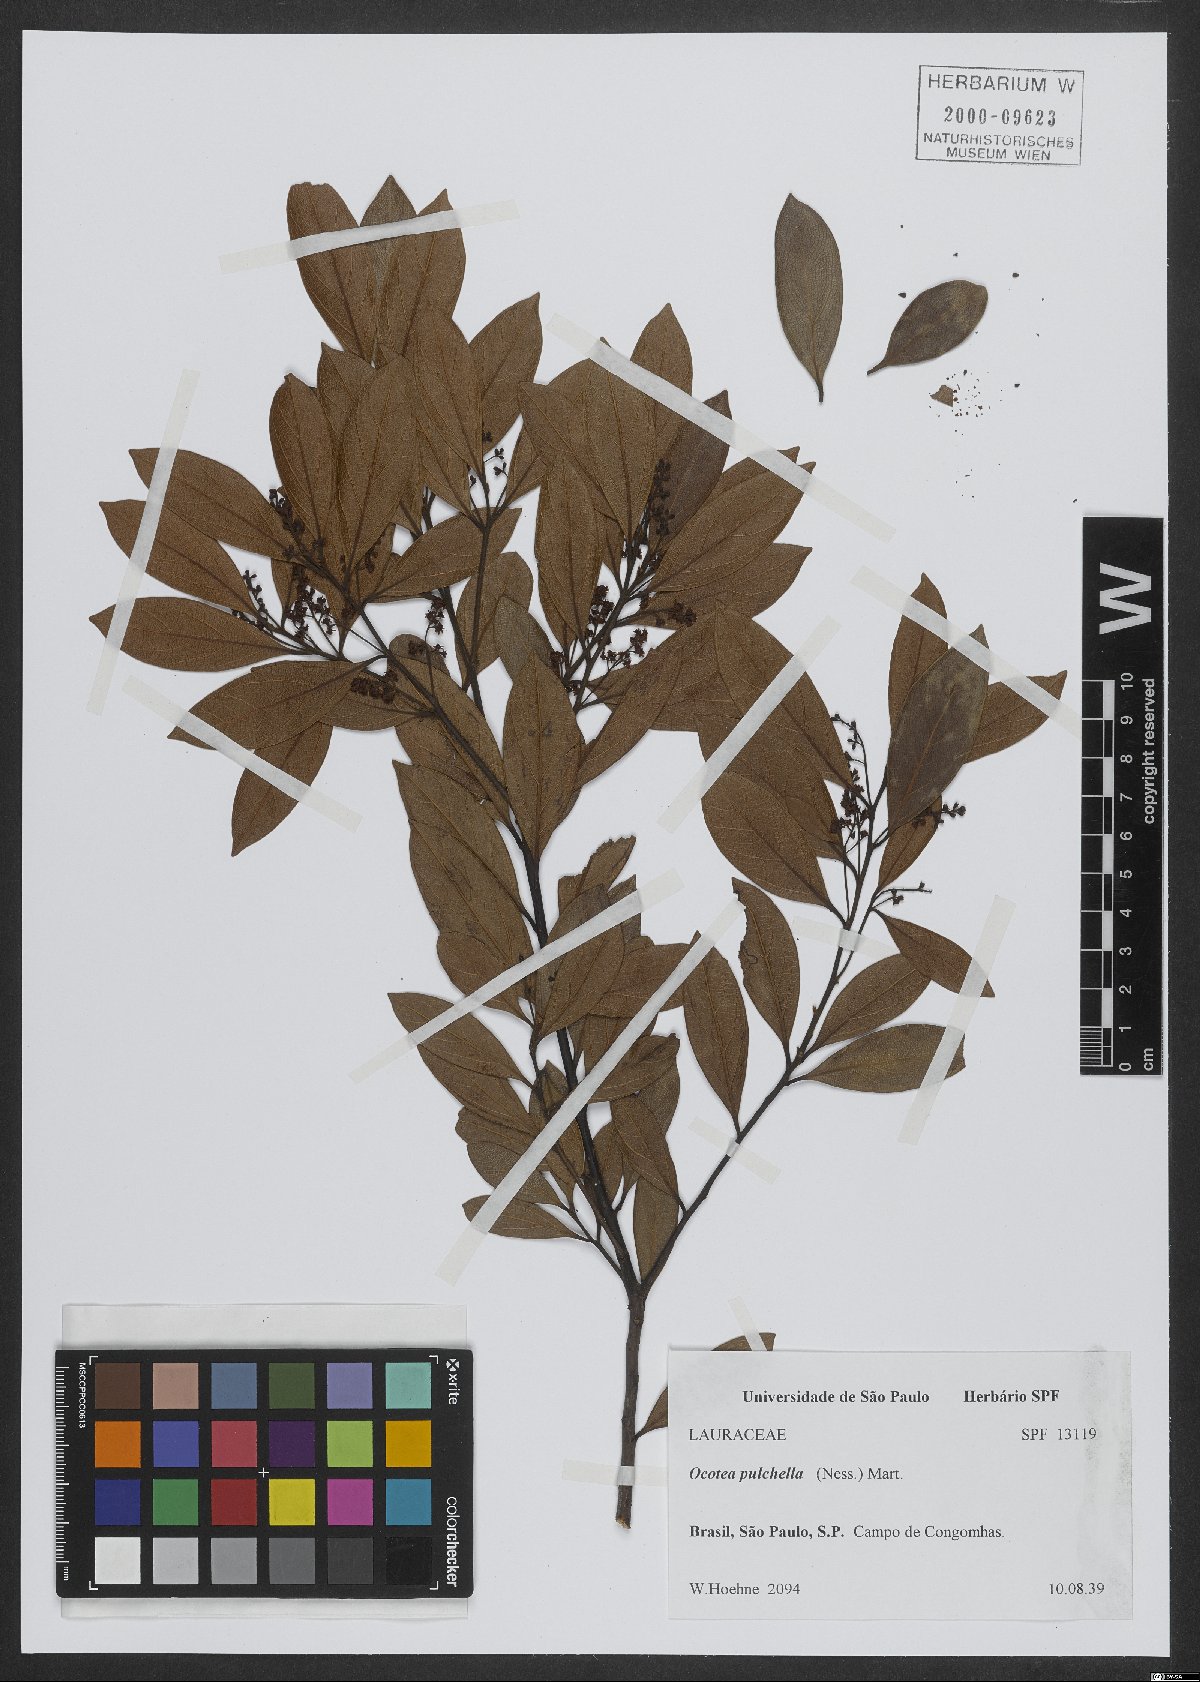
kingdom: Plantae
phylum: Tracheophyta
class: Magnoliopsida
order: Laurales
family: Lauraceae
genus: Mespilodaphne
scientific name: Mespilodaphne pulchella
